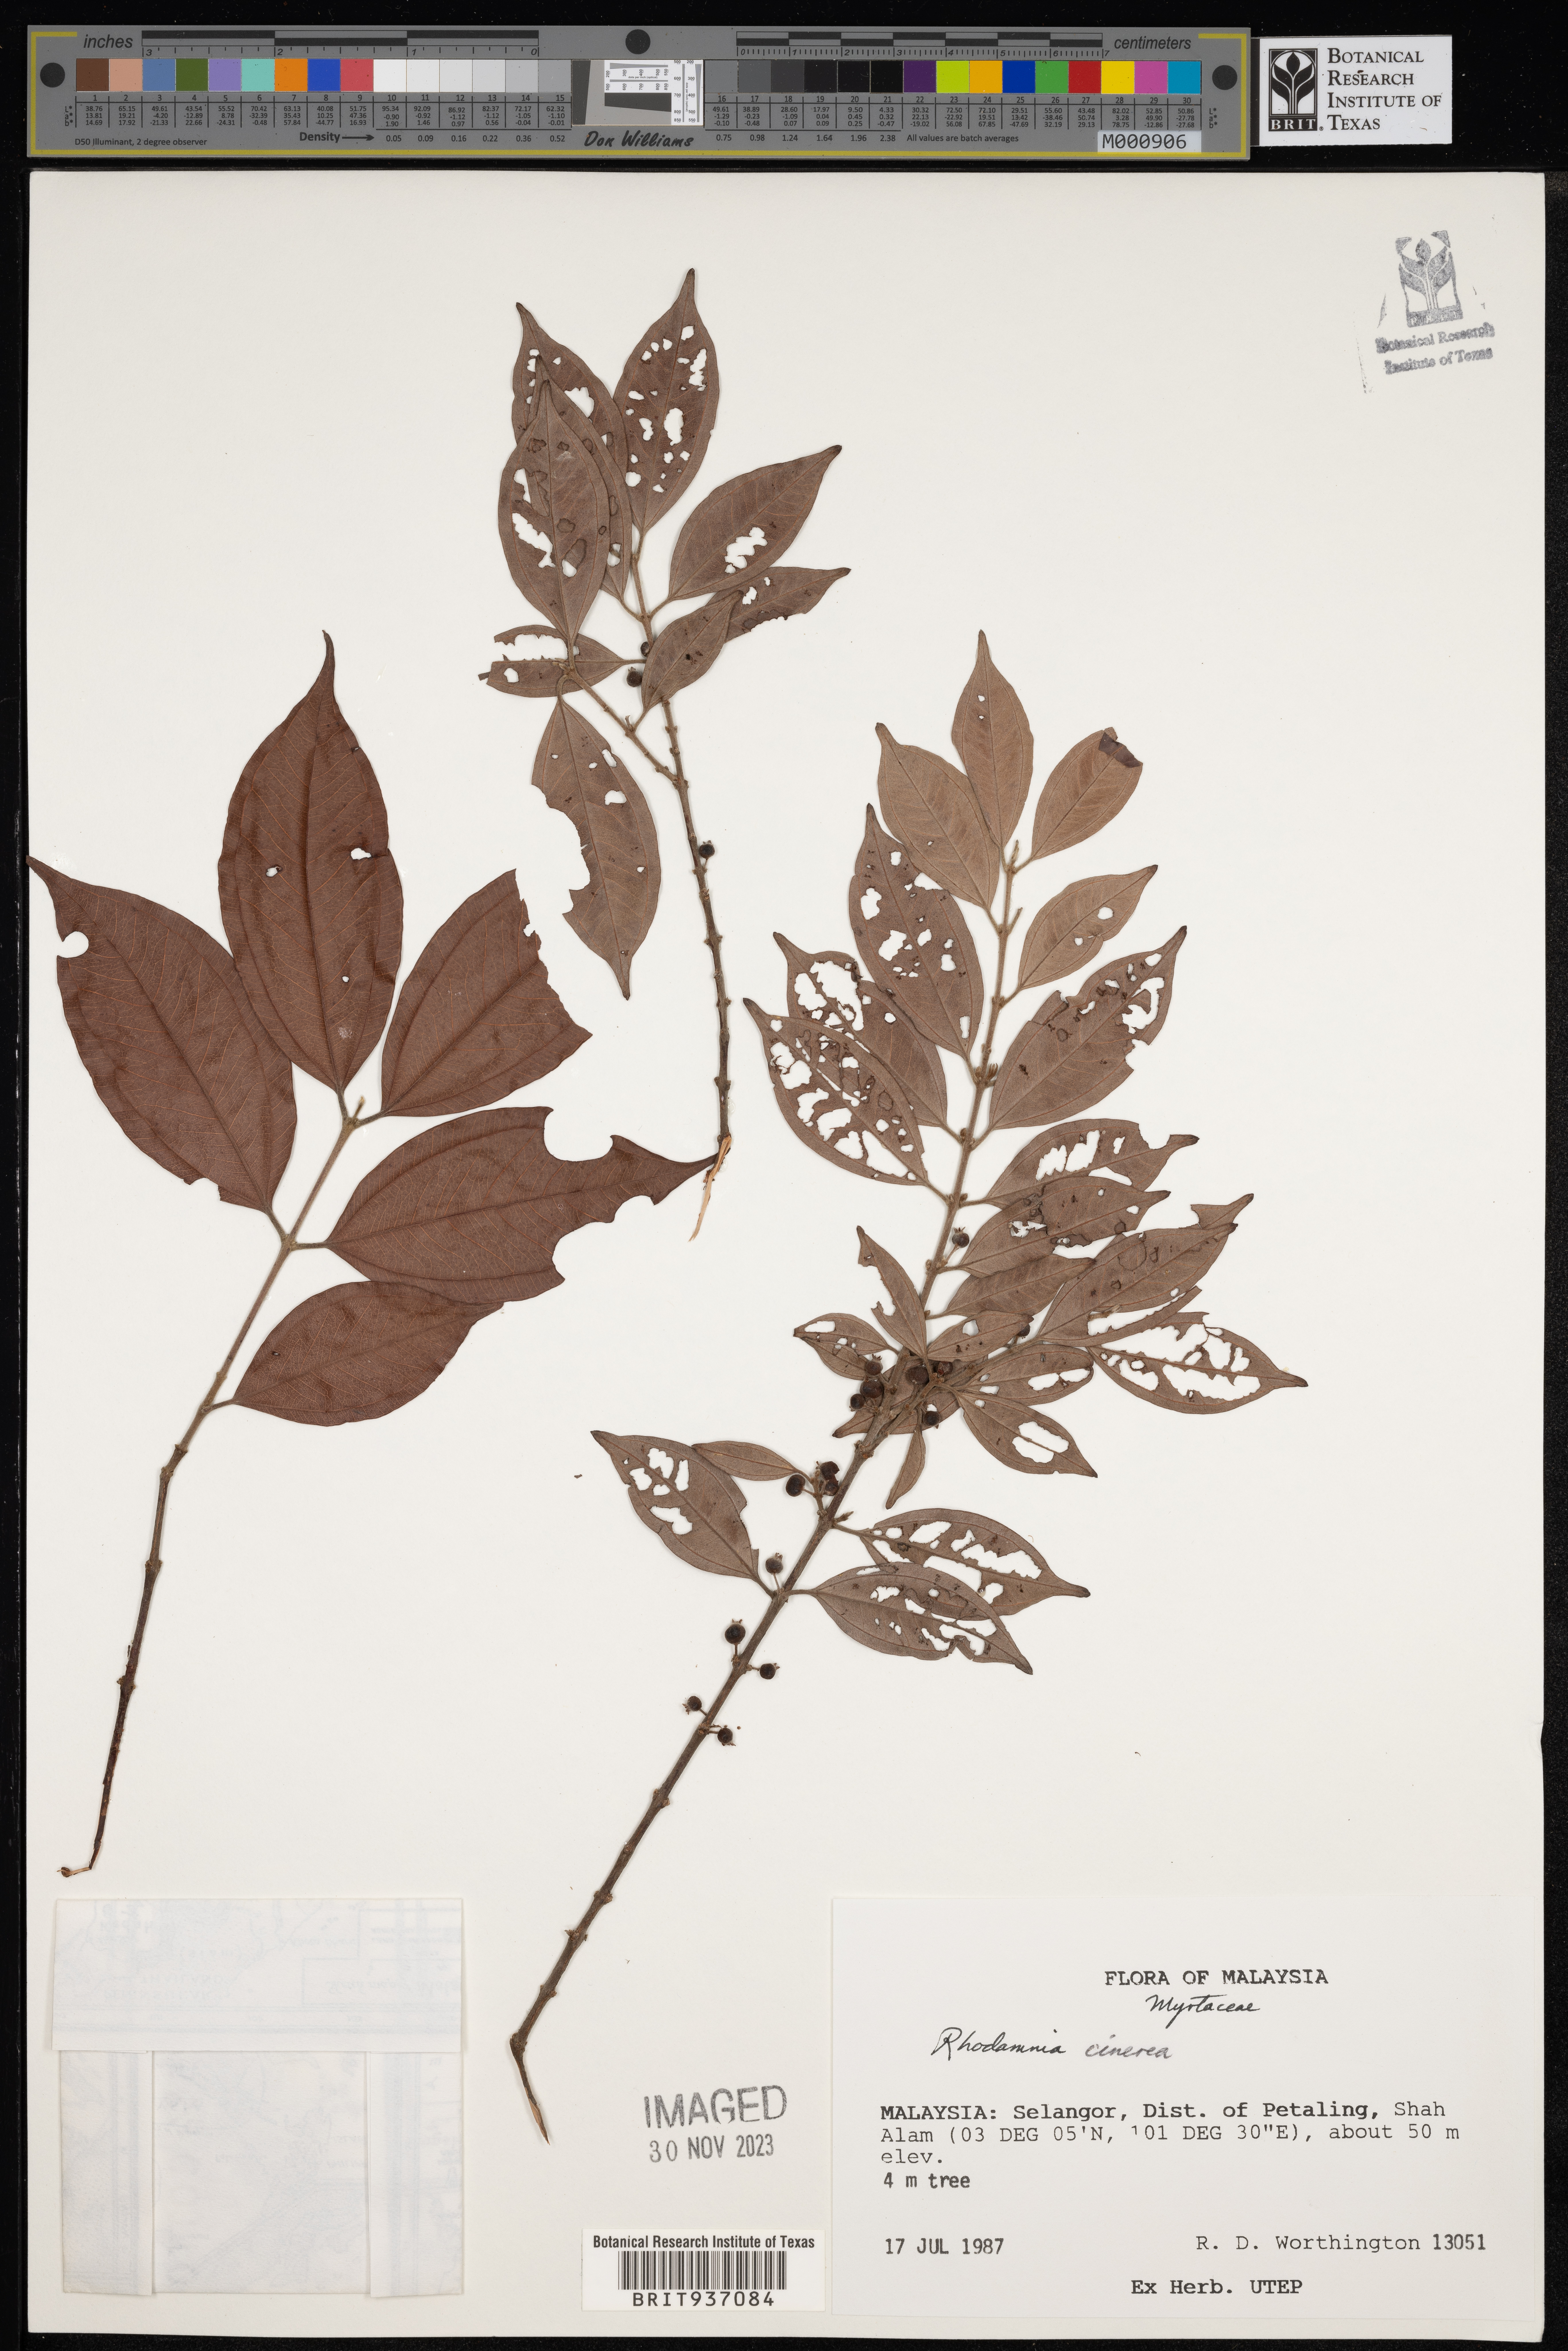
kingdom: Plantae
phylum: Tracheophyta
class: Magnoliopsida
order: Myrtales
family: Myrtaceae
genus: Rhodamnia
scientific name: Rhodamnia
